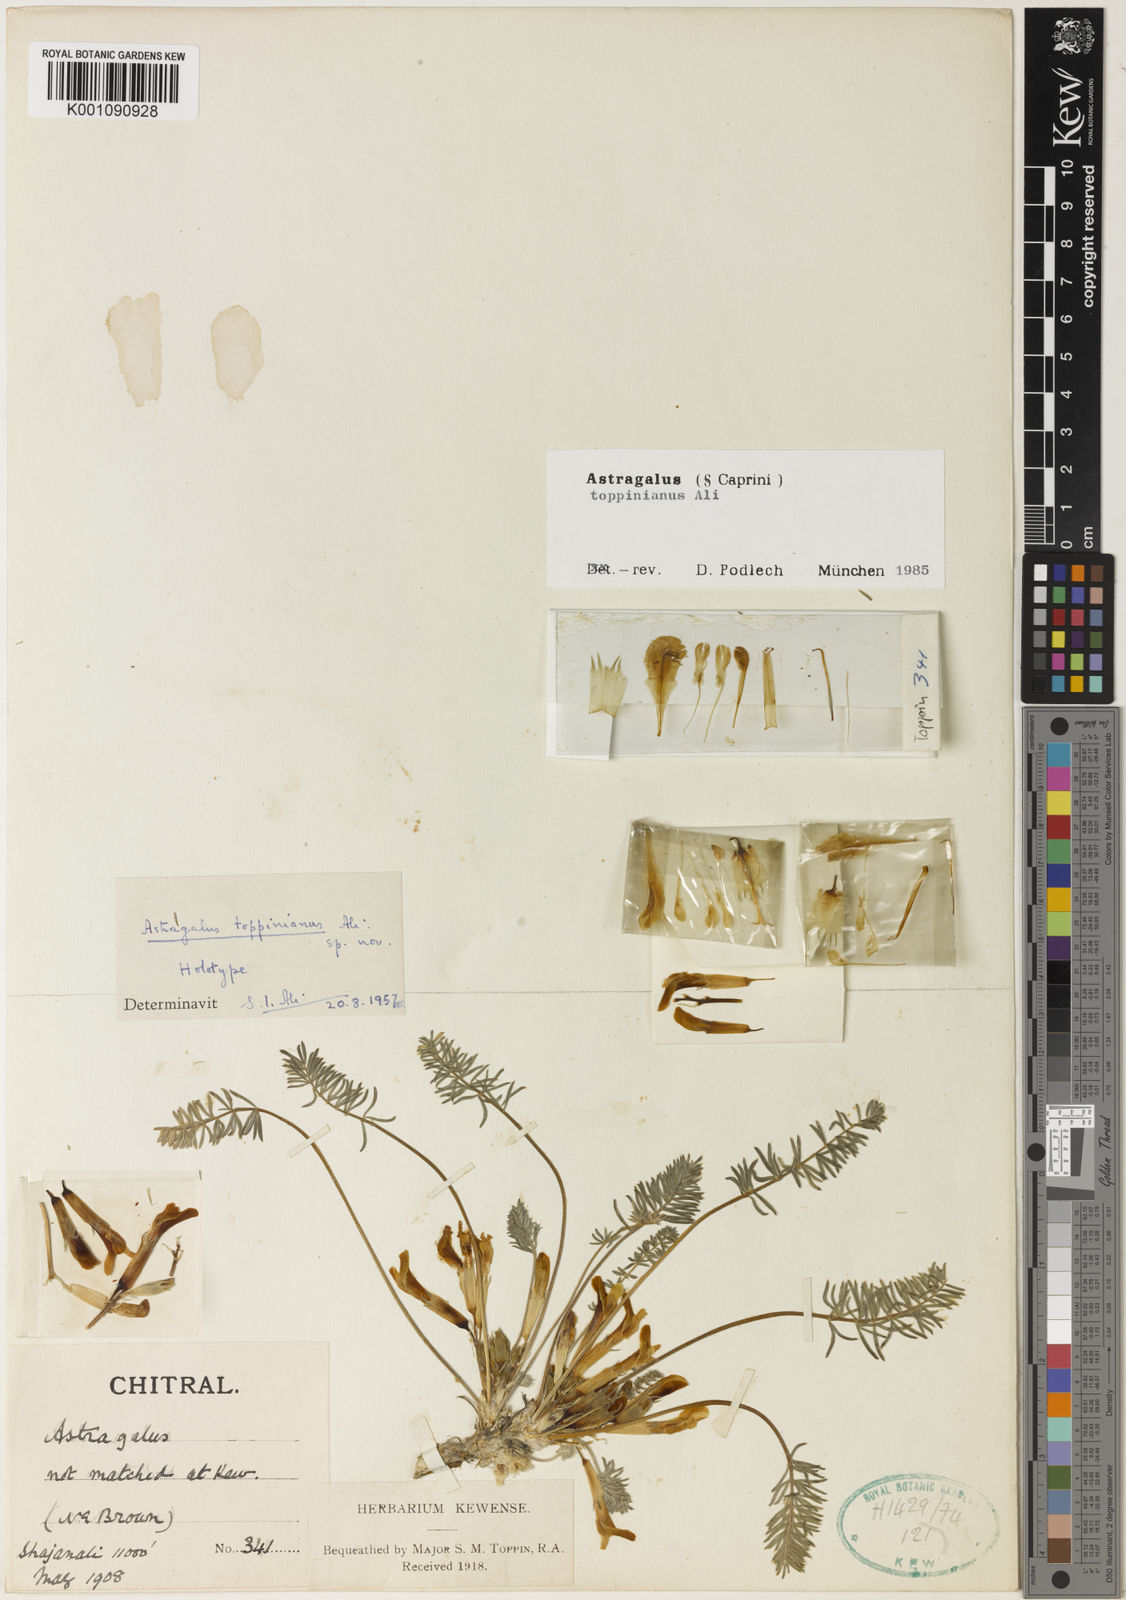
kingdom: Plantae
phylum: Tracheophyta
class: Magnoliopsida
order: Fabales
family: Fabaceae
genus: Astragalus
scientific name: Astragalus
